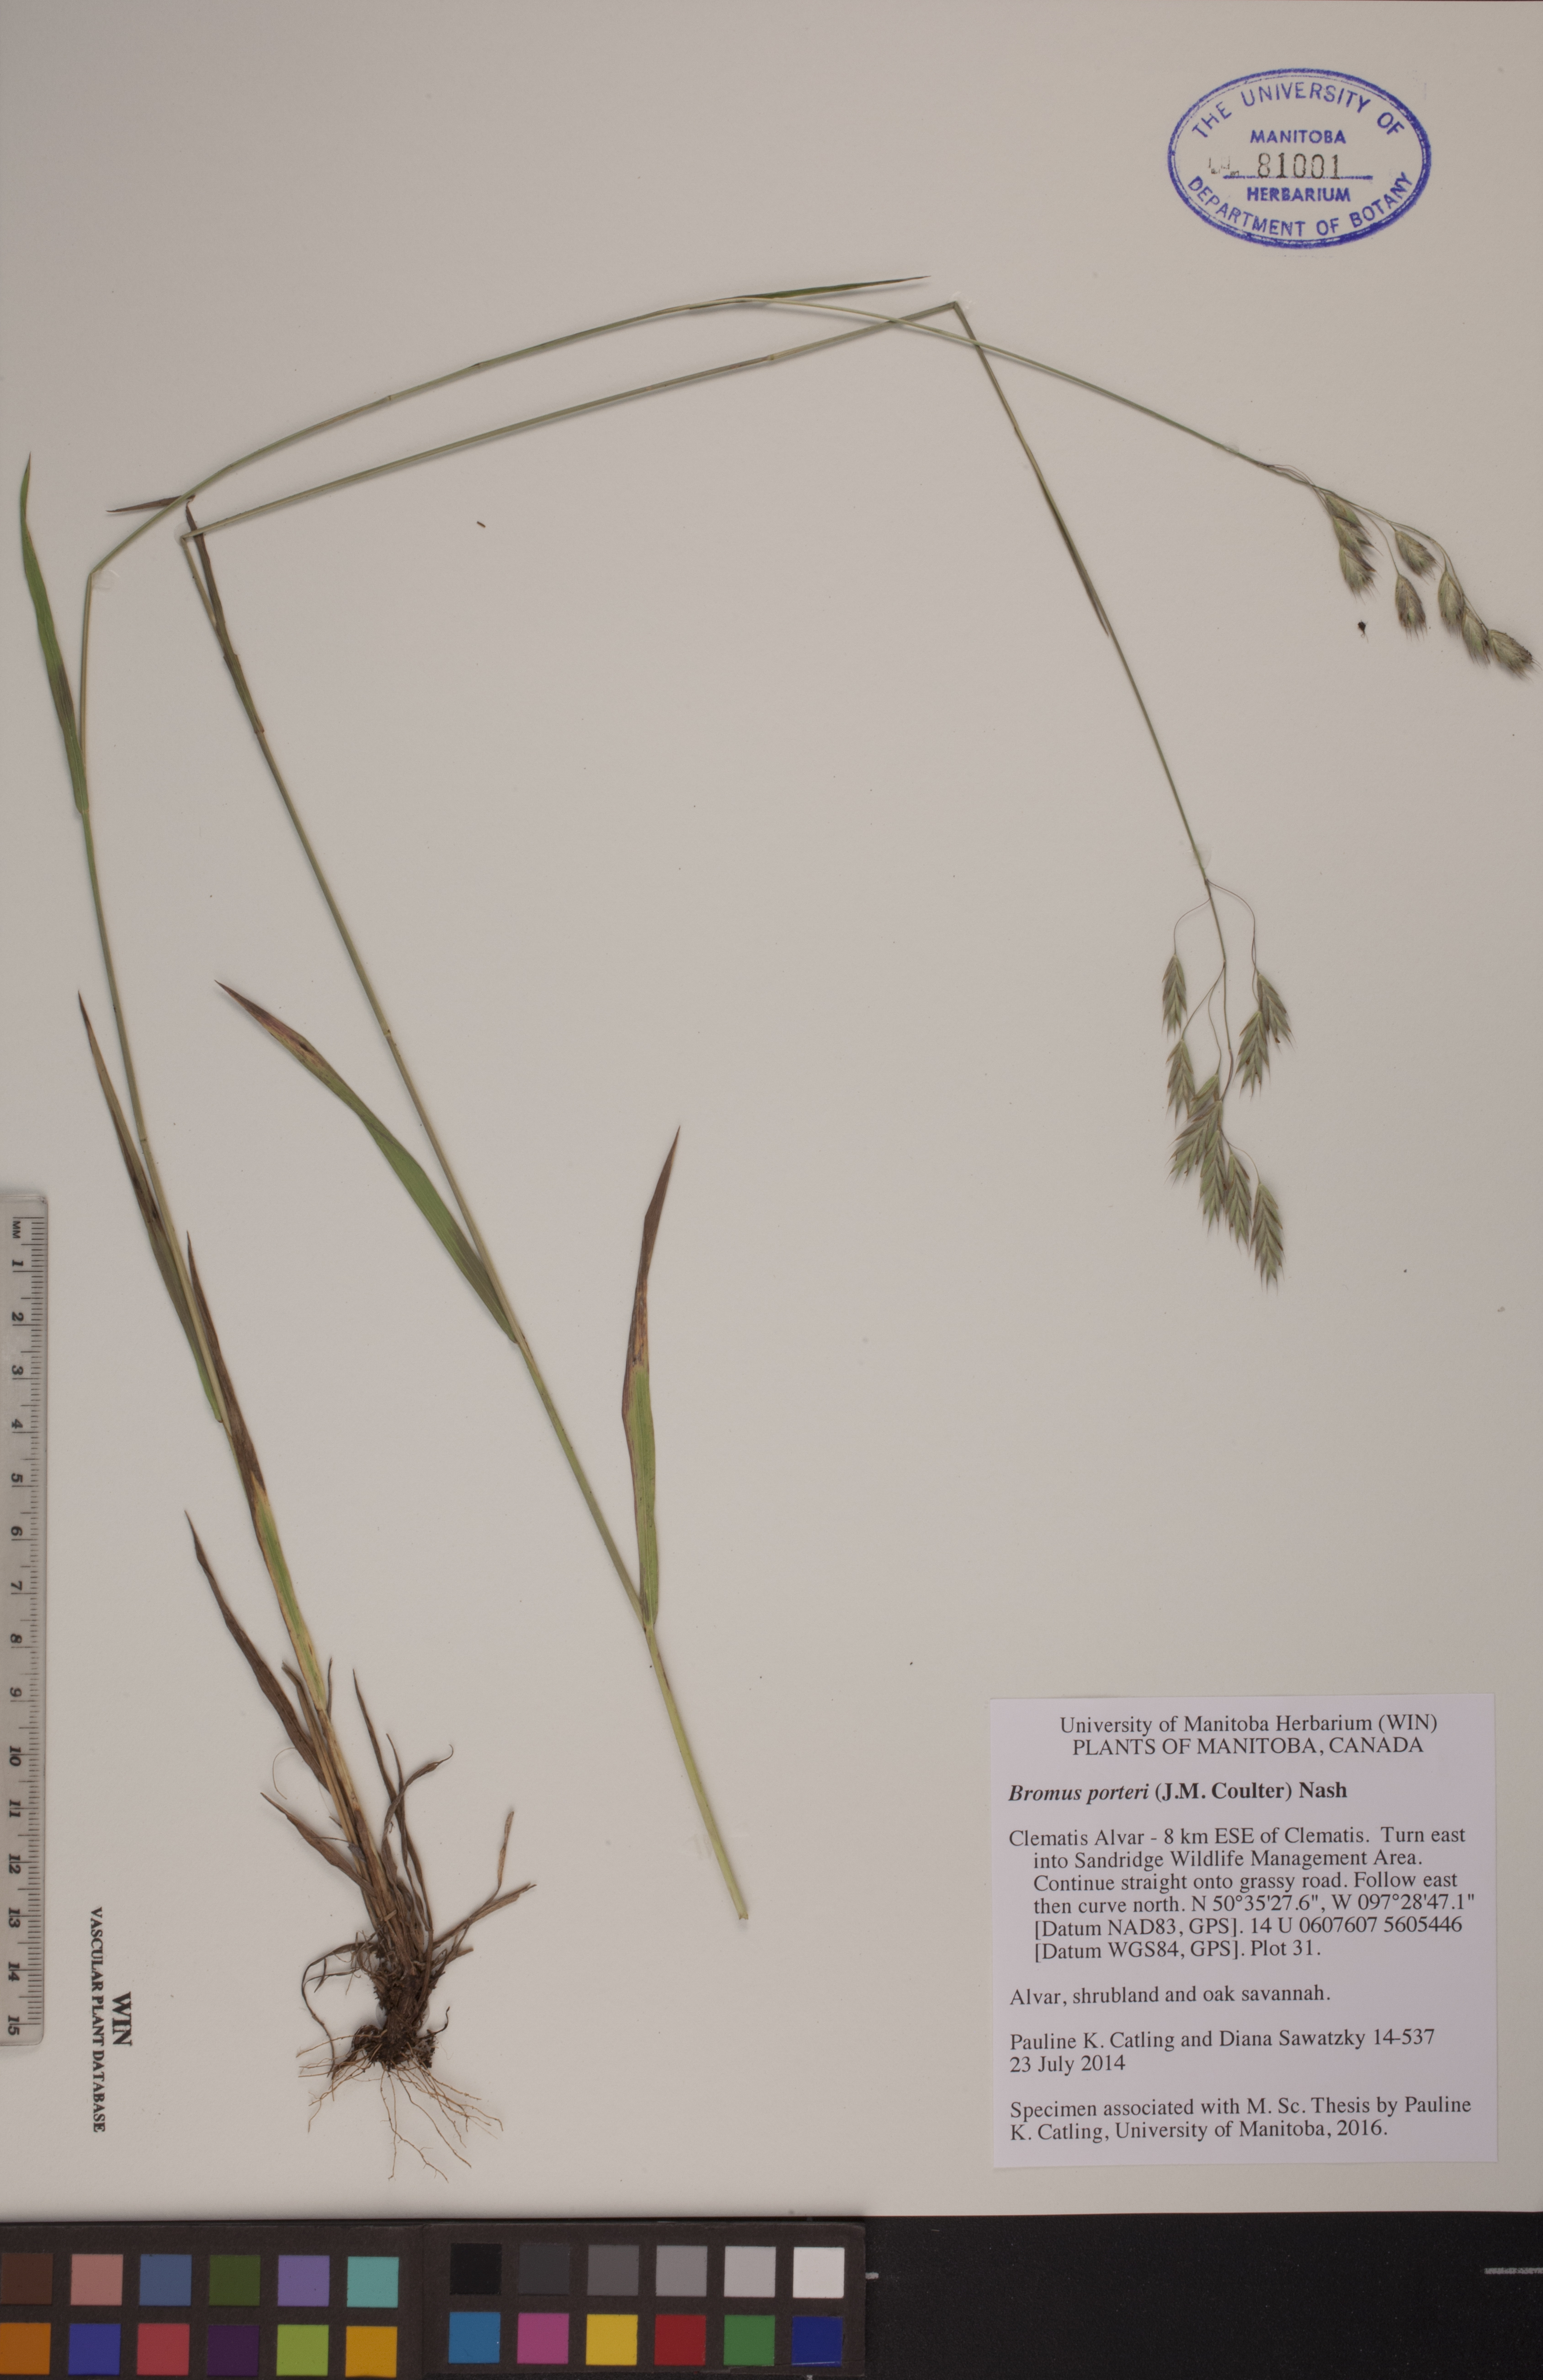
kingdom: Plantae
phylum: Tracheophyta
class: Liliopsida
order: Poales
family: Poaceae
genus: Bromus
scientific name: Bromus porteri
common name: Nodding brome
